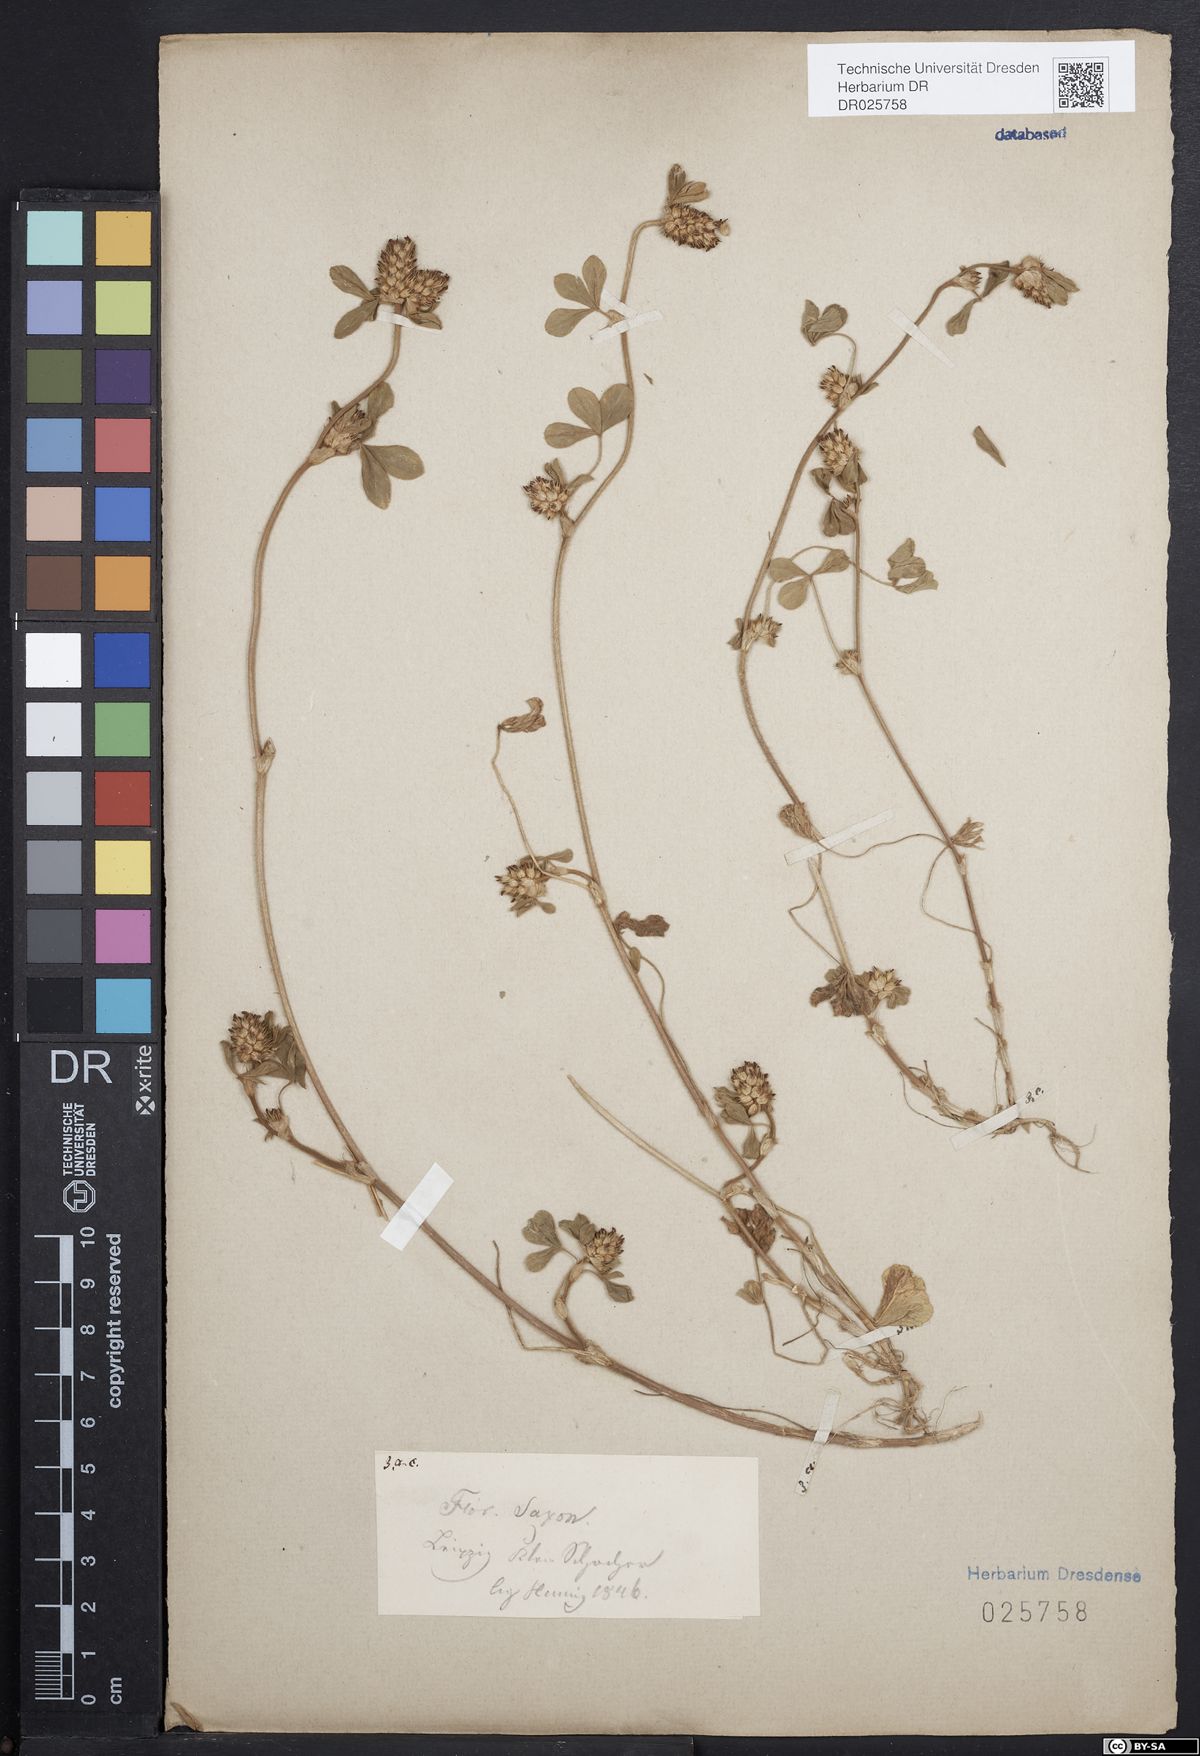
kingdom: Plantae
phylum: Tracheophyta
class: Magnoliopsida
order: Fabales
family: Fabaceae
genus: Trifolium
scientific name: Trifolium striatum
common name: Knotted clover
